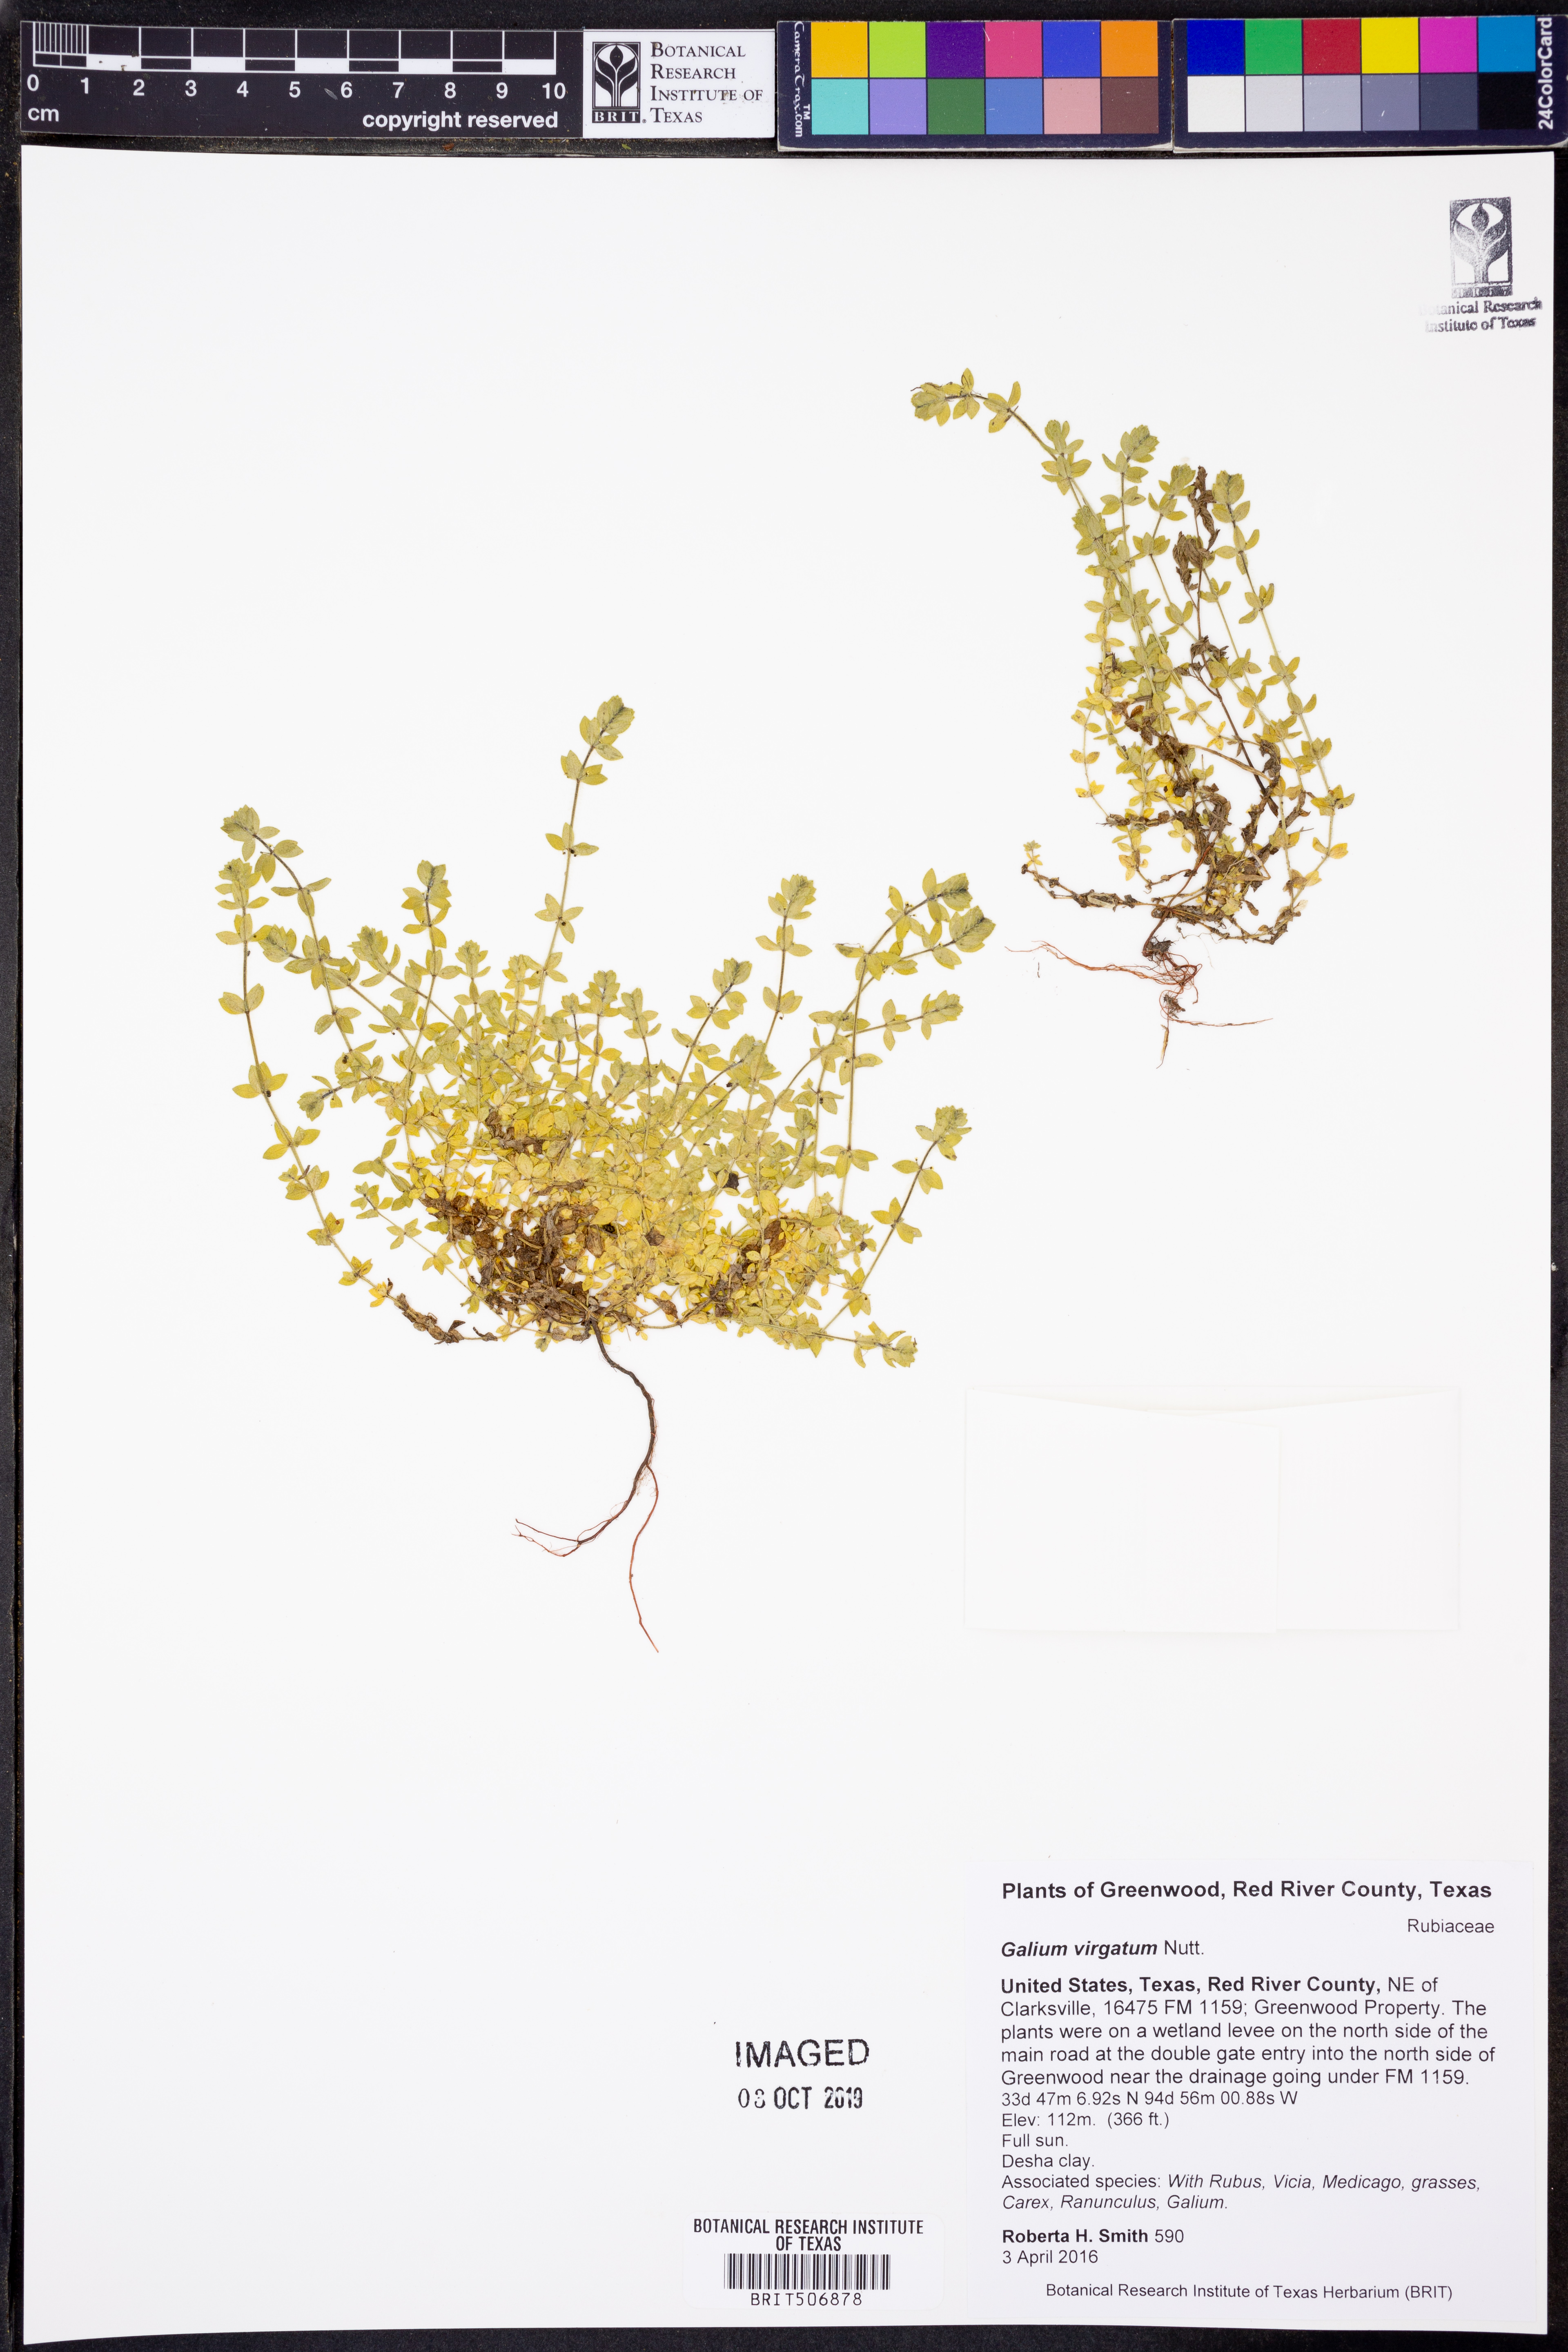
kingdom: Plantae
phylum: Tracheophyta
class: Magnoliopsida
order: Gentianales
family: Rubiaceae
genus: Galium
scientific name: Galium virgatum
